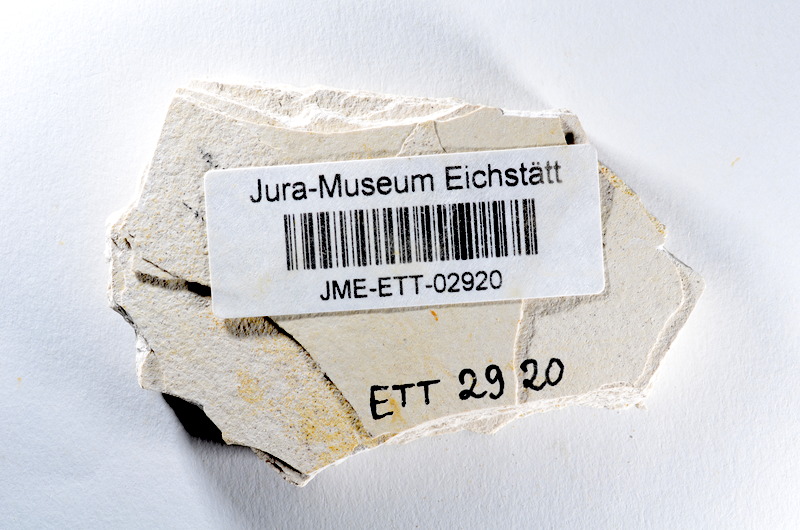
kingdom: Animalia
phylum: Chordata
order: Salmoniformes
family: Orthogonikleithridae
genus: Orthogonikleithrus
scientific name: Orthogonikleithrus hoelli
